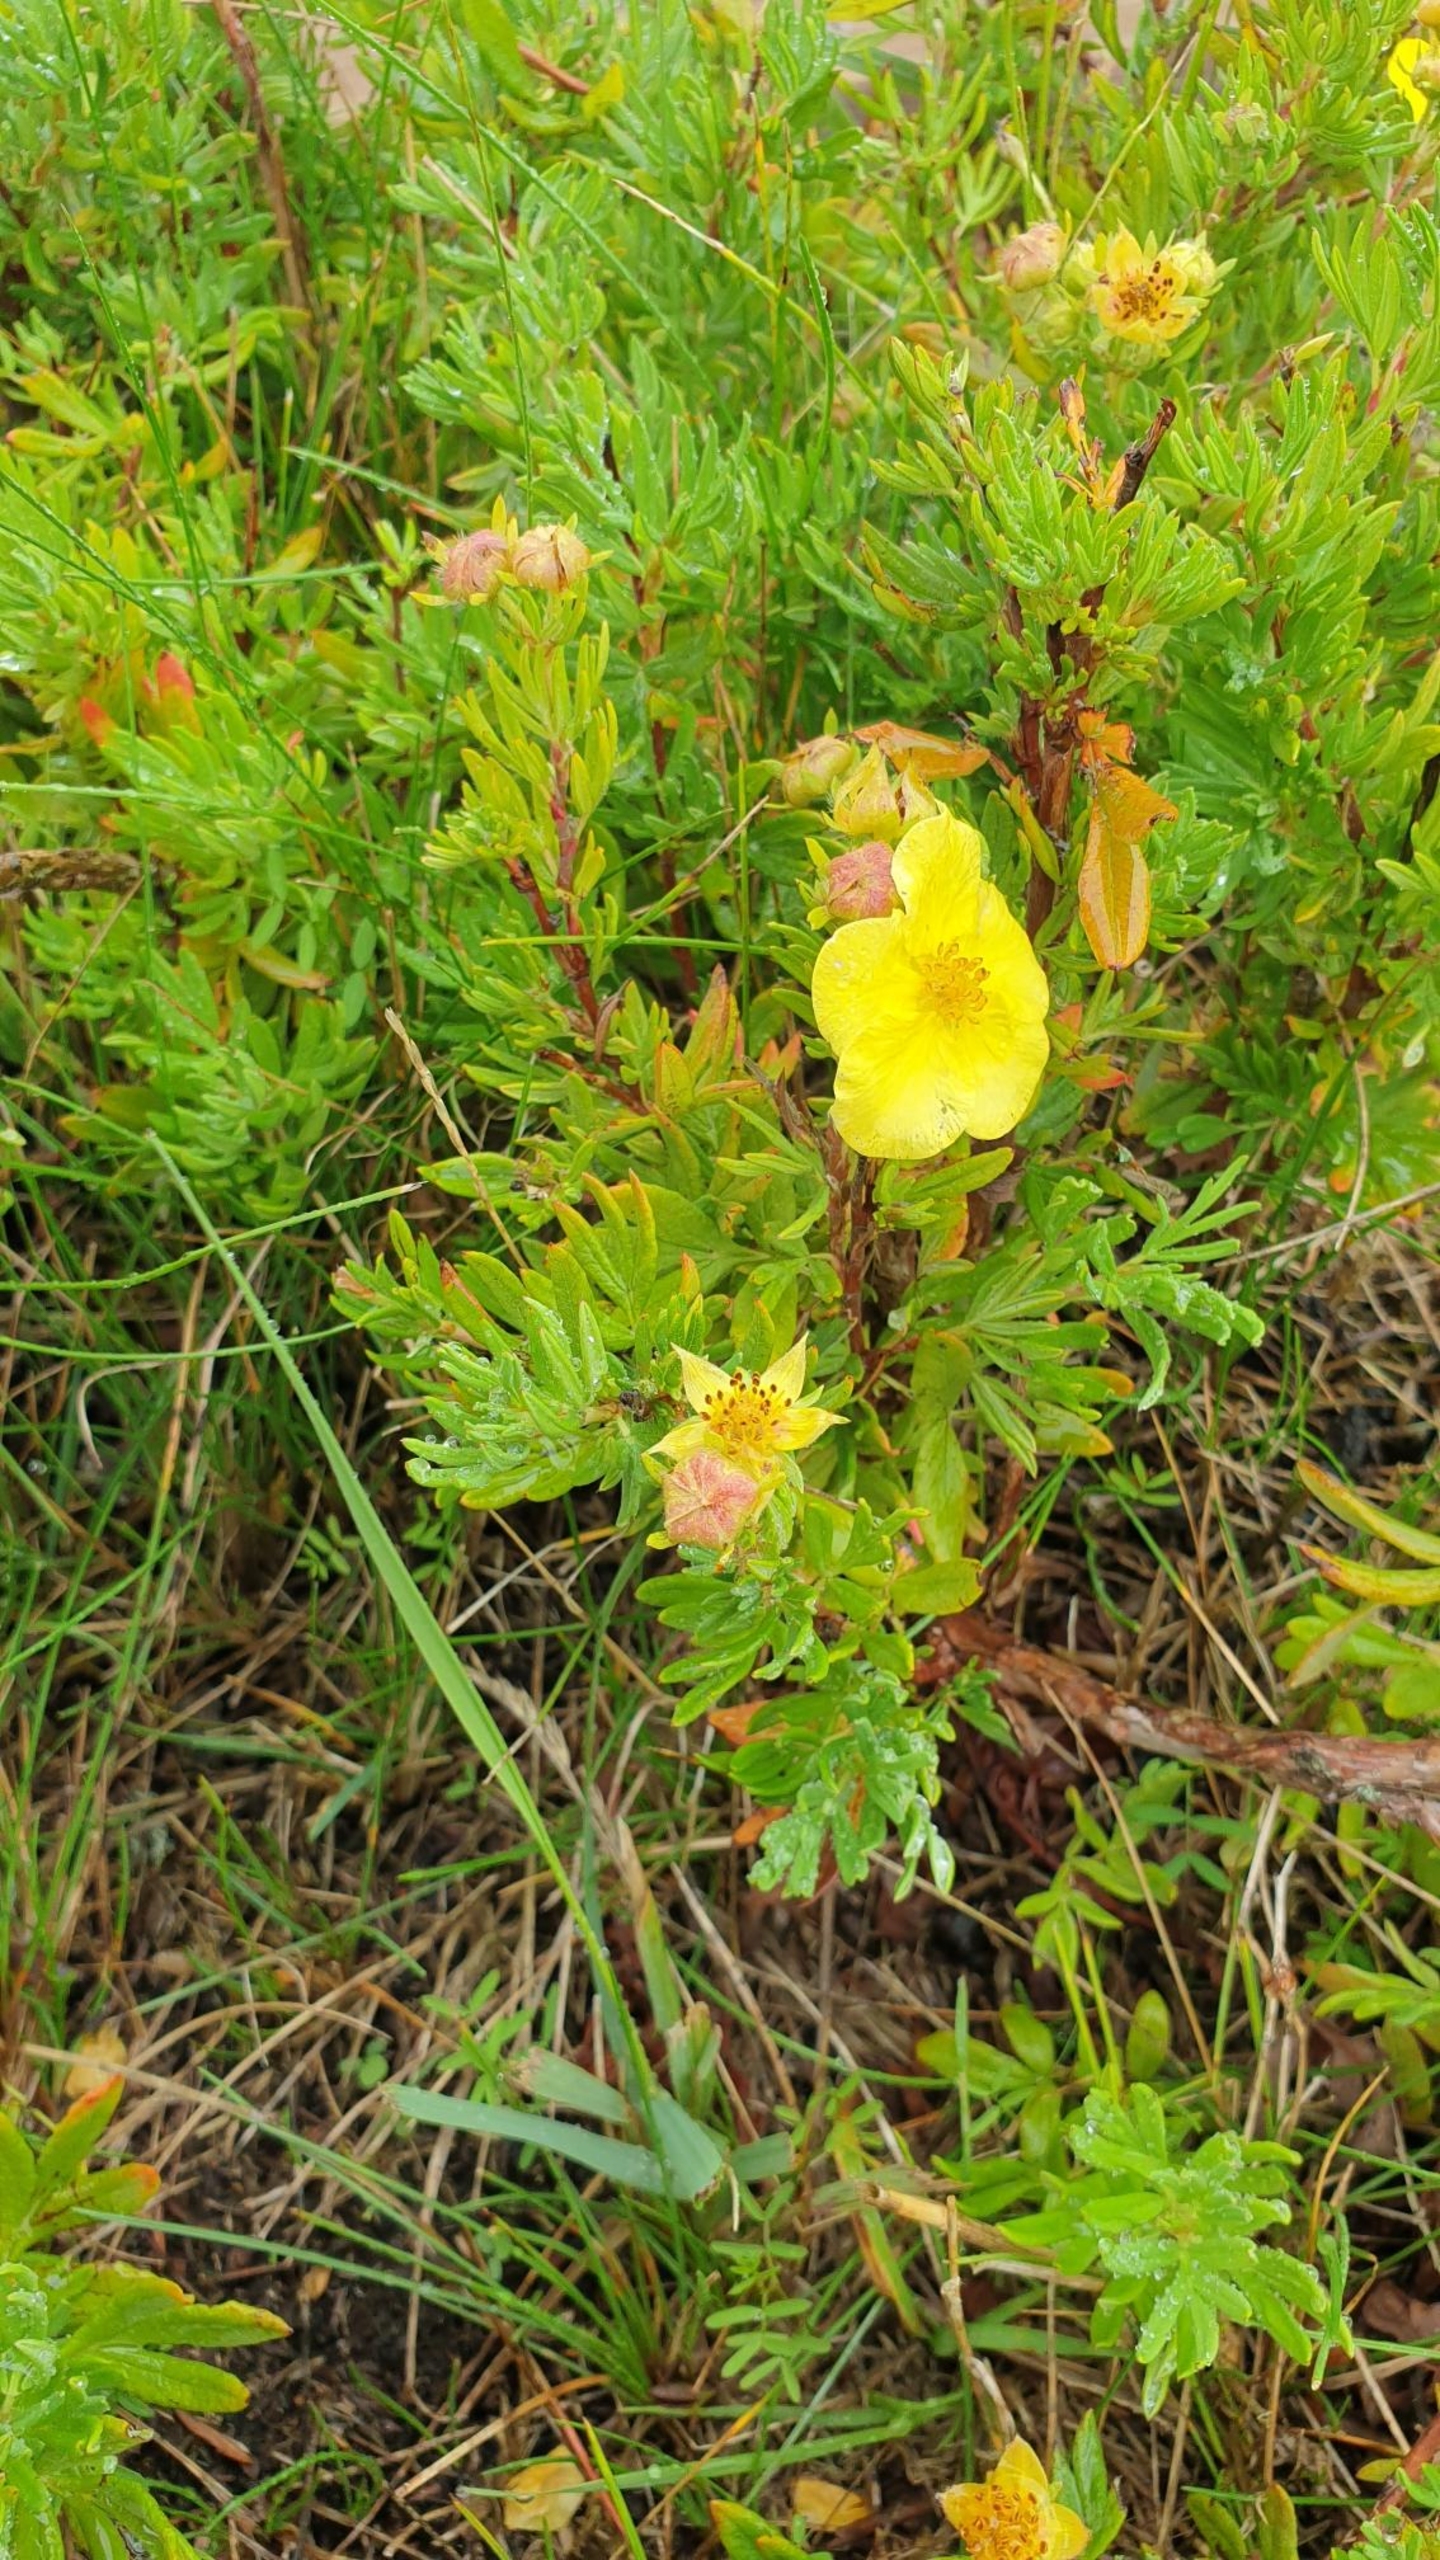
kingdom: Plantae
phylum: Tracheophyta
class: Magnoliopsida
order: Rosales
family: Rosaceae
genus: Dasiphora
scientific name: Dasiphora fruticosa
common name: Buskpotentil
